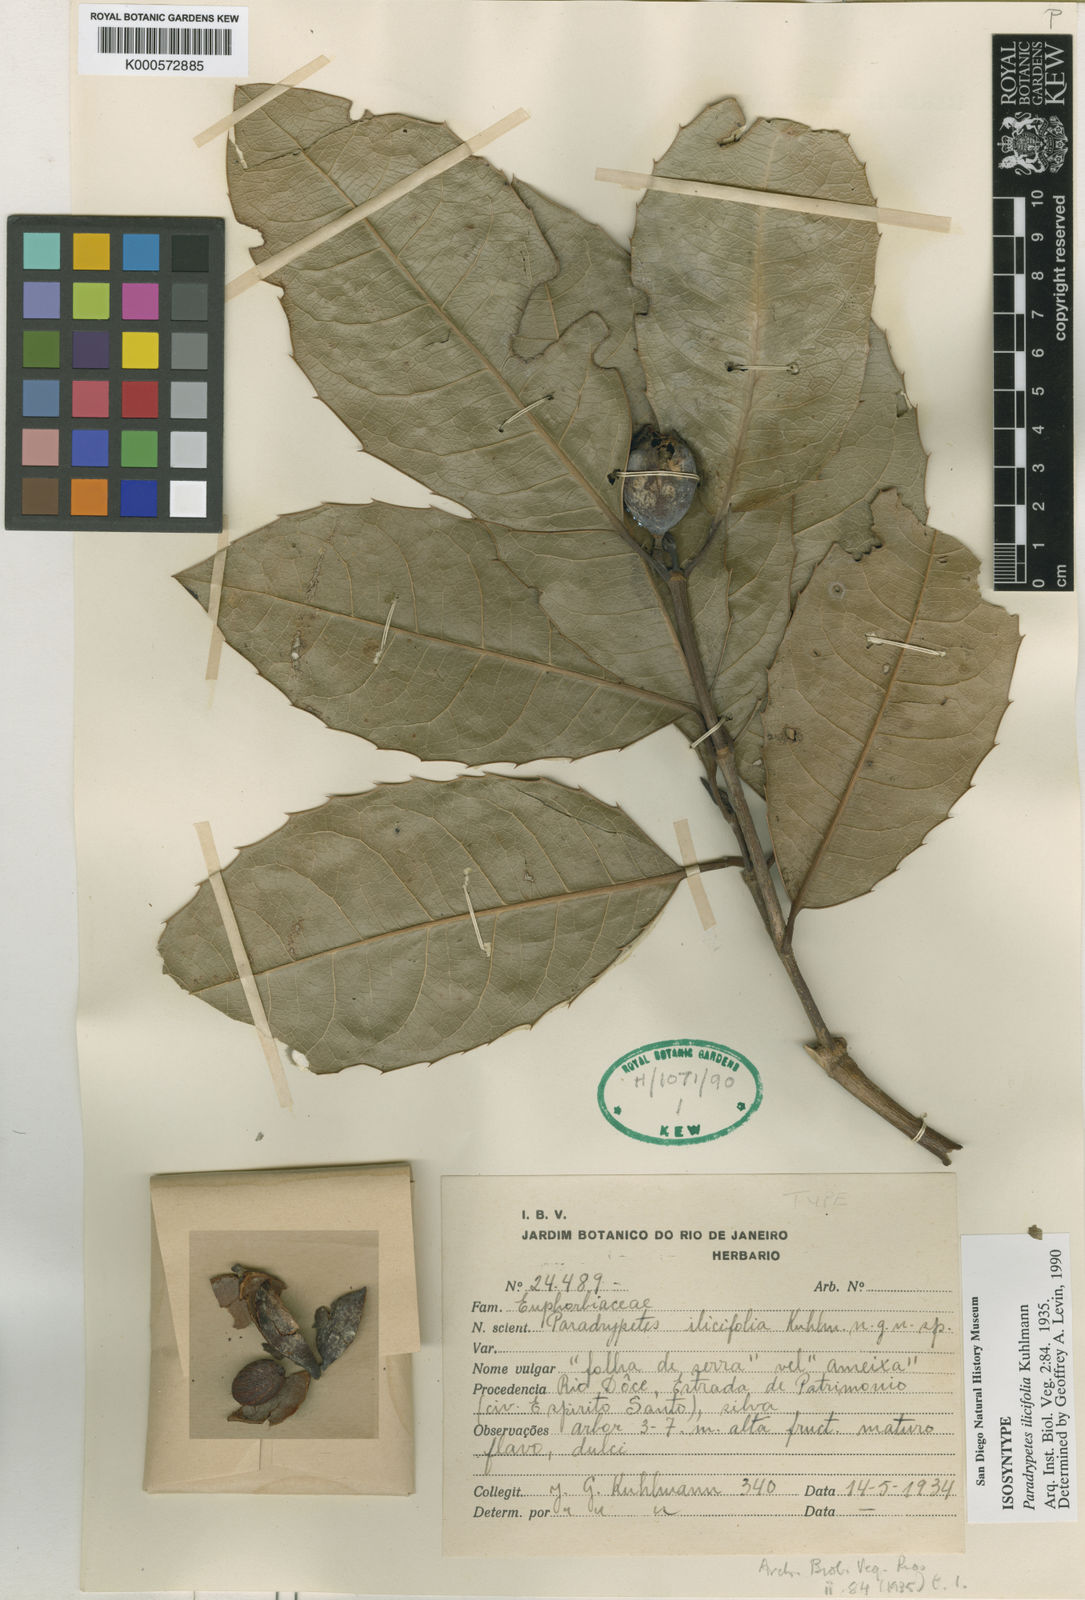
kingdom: Plantae
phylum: Tracheophyta
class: Magnoliopsida
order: Malpighiales
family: Rhizophoraceae
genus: Paradrypetes
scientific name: Paradrypetes ilicifolia
